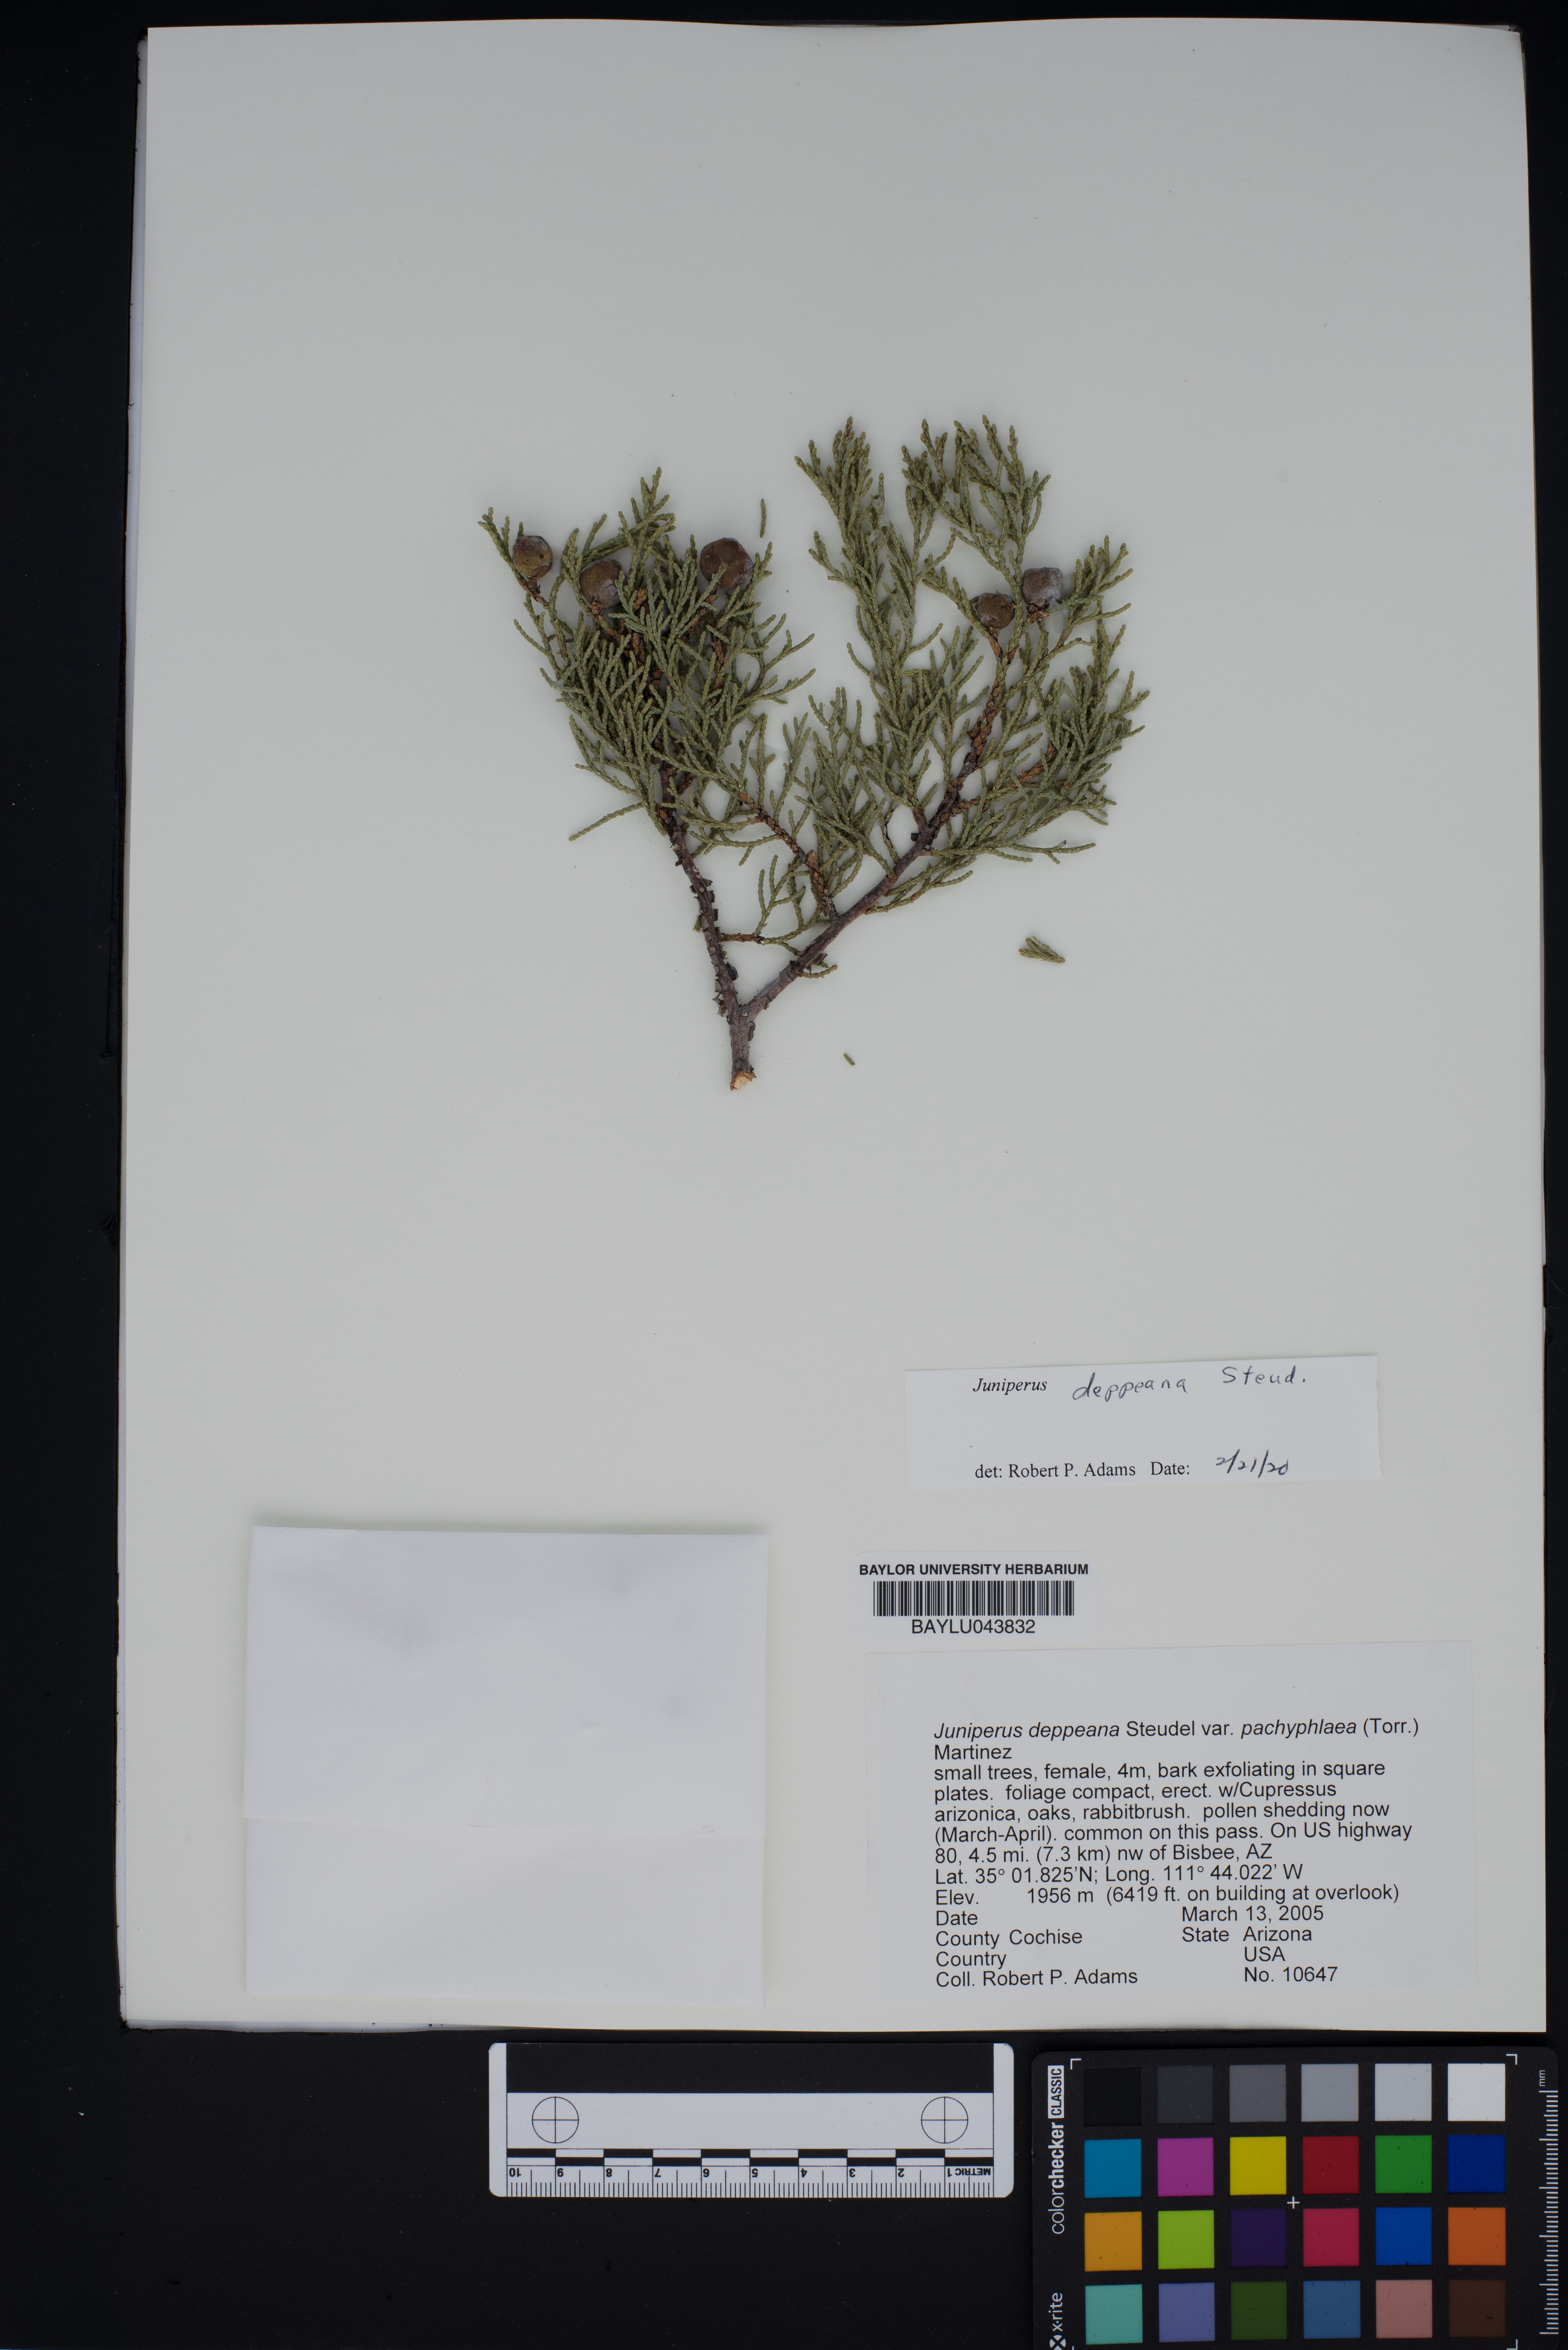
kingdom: Plantae
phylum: Tracheophyta
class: Pinopsida
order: Pinales
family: Cupressaceae
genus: Juniperus
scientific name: Juniperus deppeana
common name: Alligator juniper
